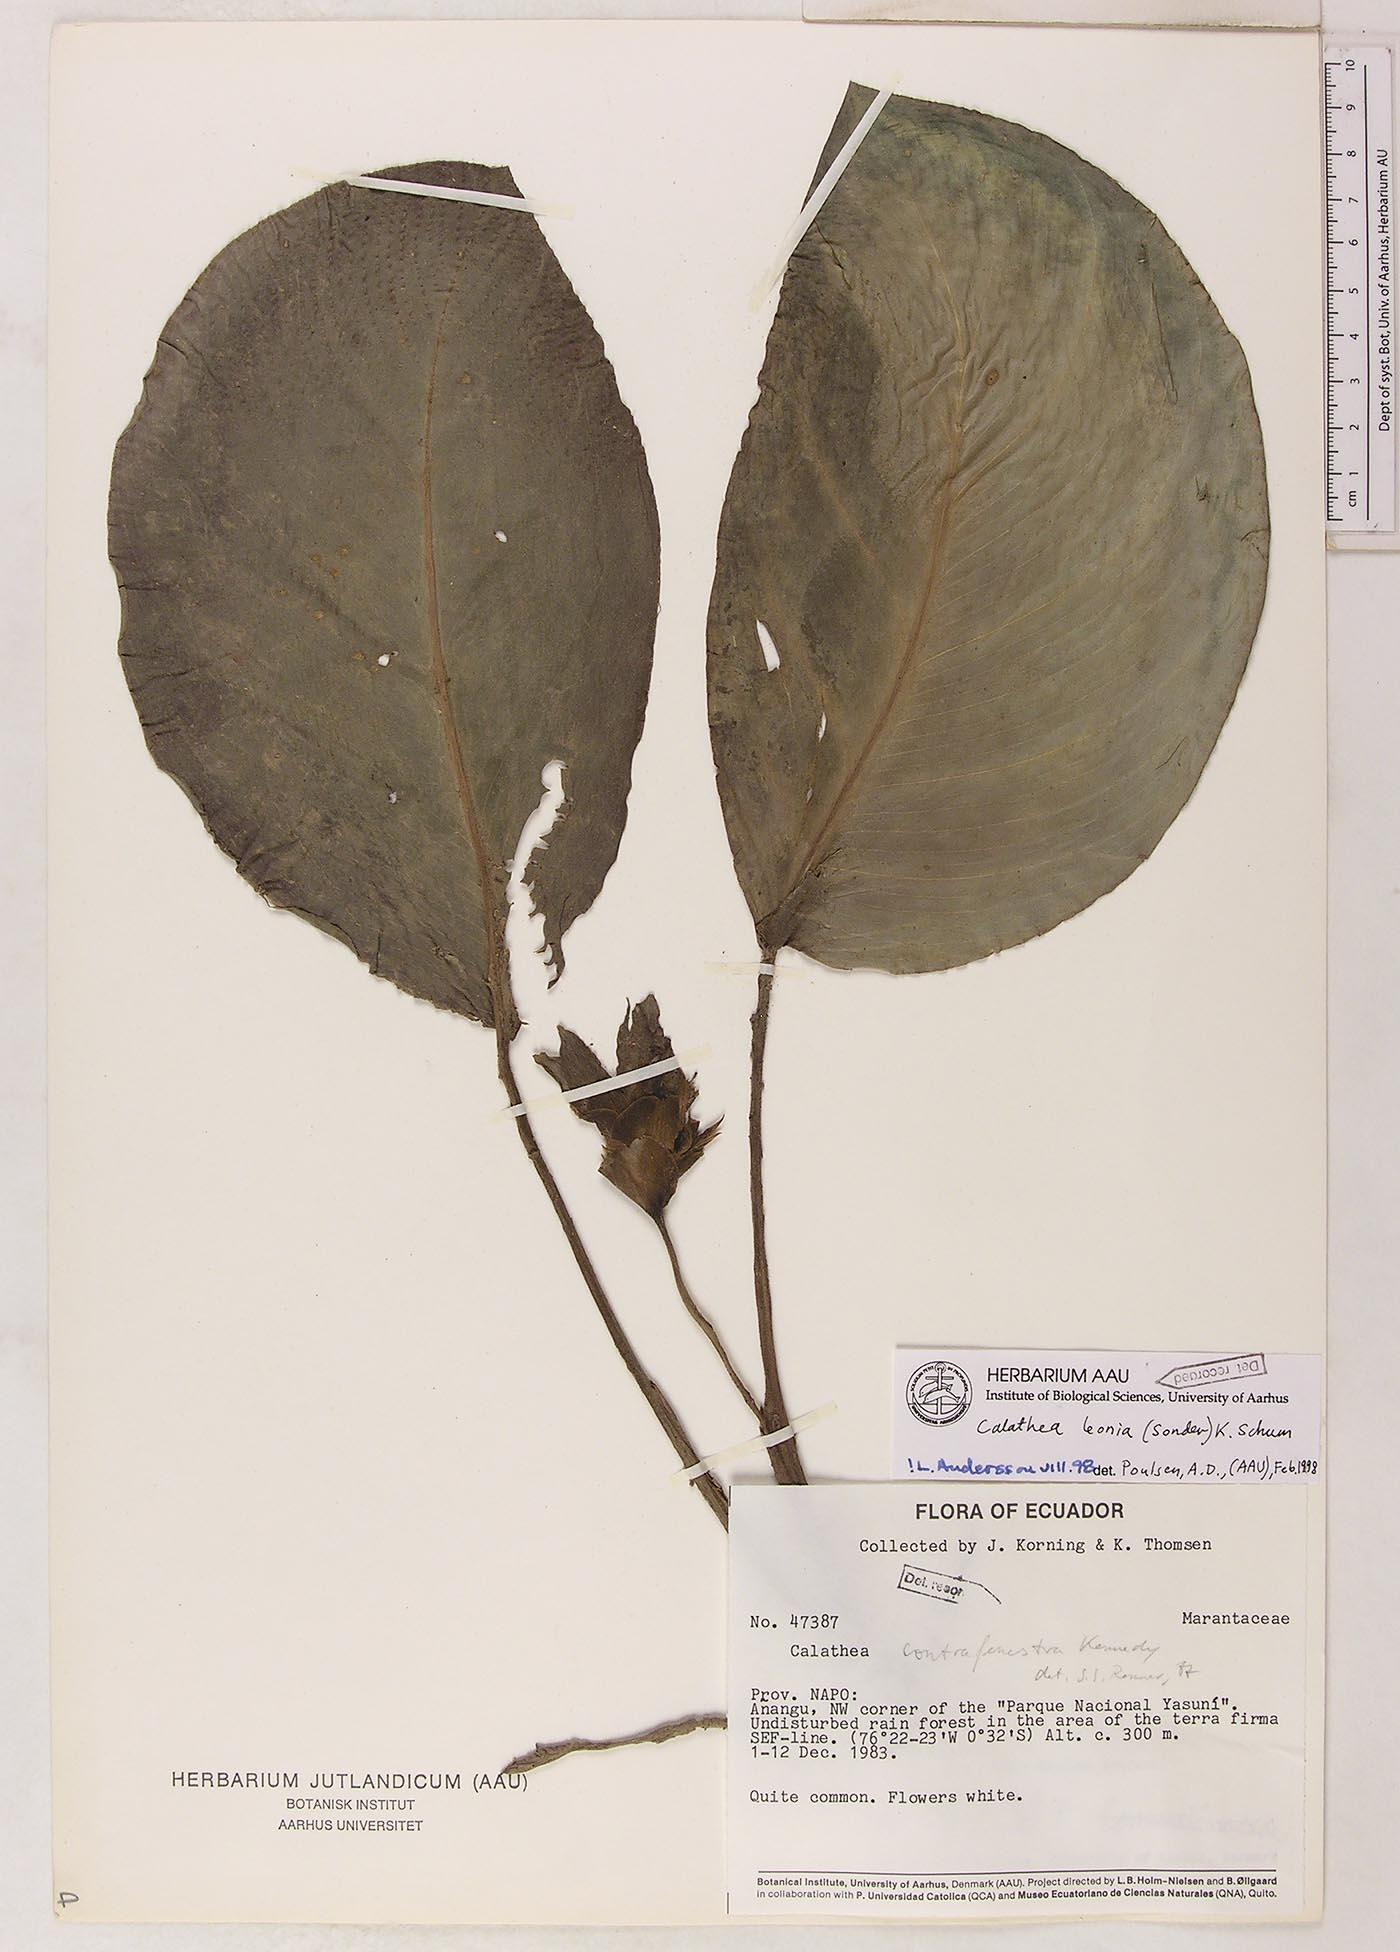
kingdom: Plantae
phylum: Tracheophyta
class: Liliopsida
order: Zingiberales
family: Marantaceae
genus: Goeppertia
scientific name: Goeppertia leonia
